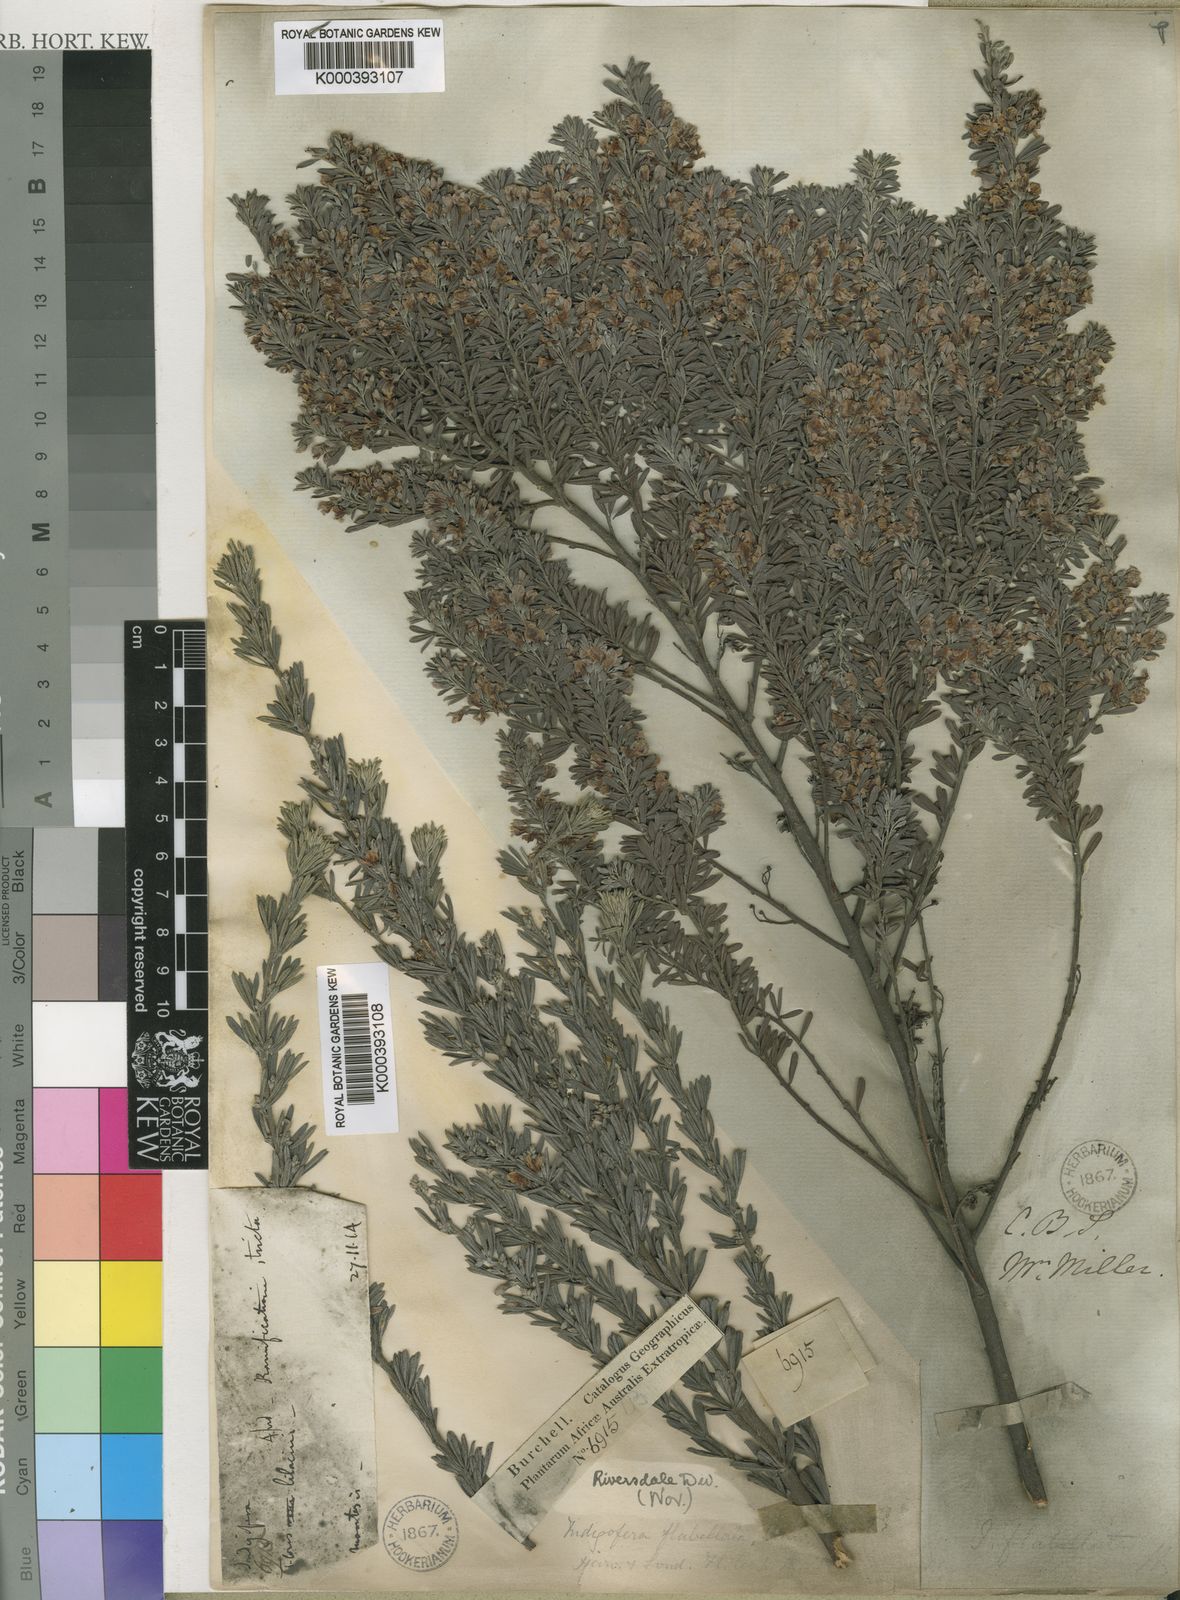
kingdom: Plantae
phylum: Tracheophyta
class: Magnoliopsida
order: Fabales
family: Fabaceae
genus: Indigofera
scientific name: Indigofera flabellata
